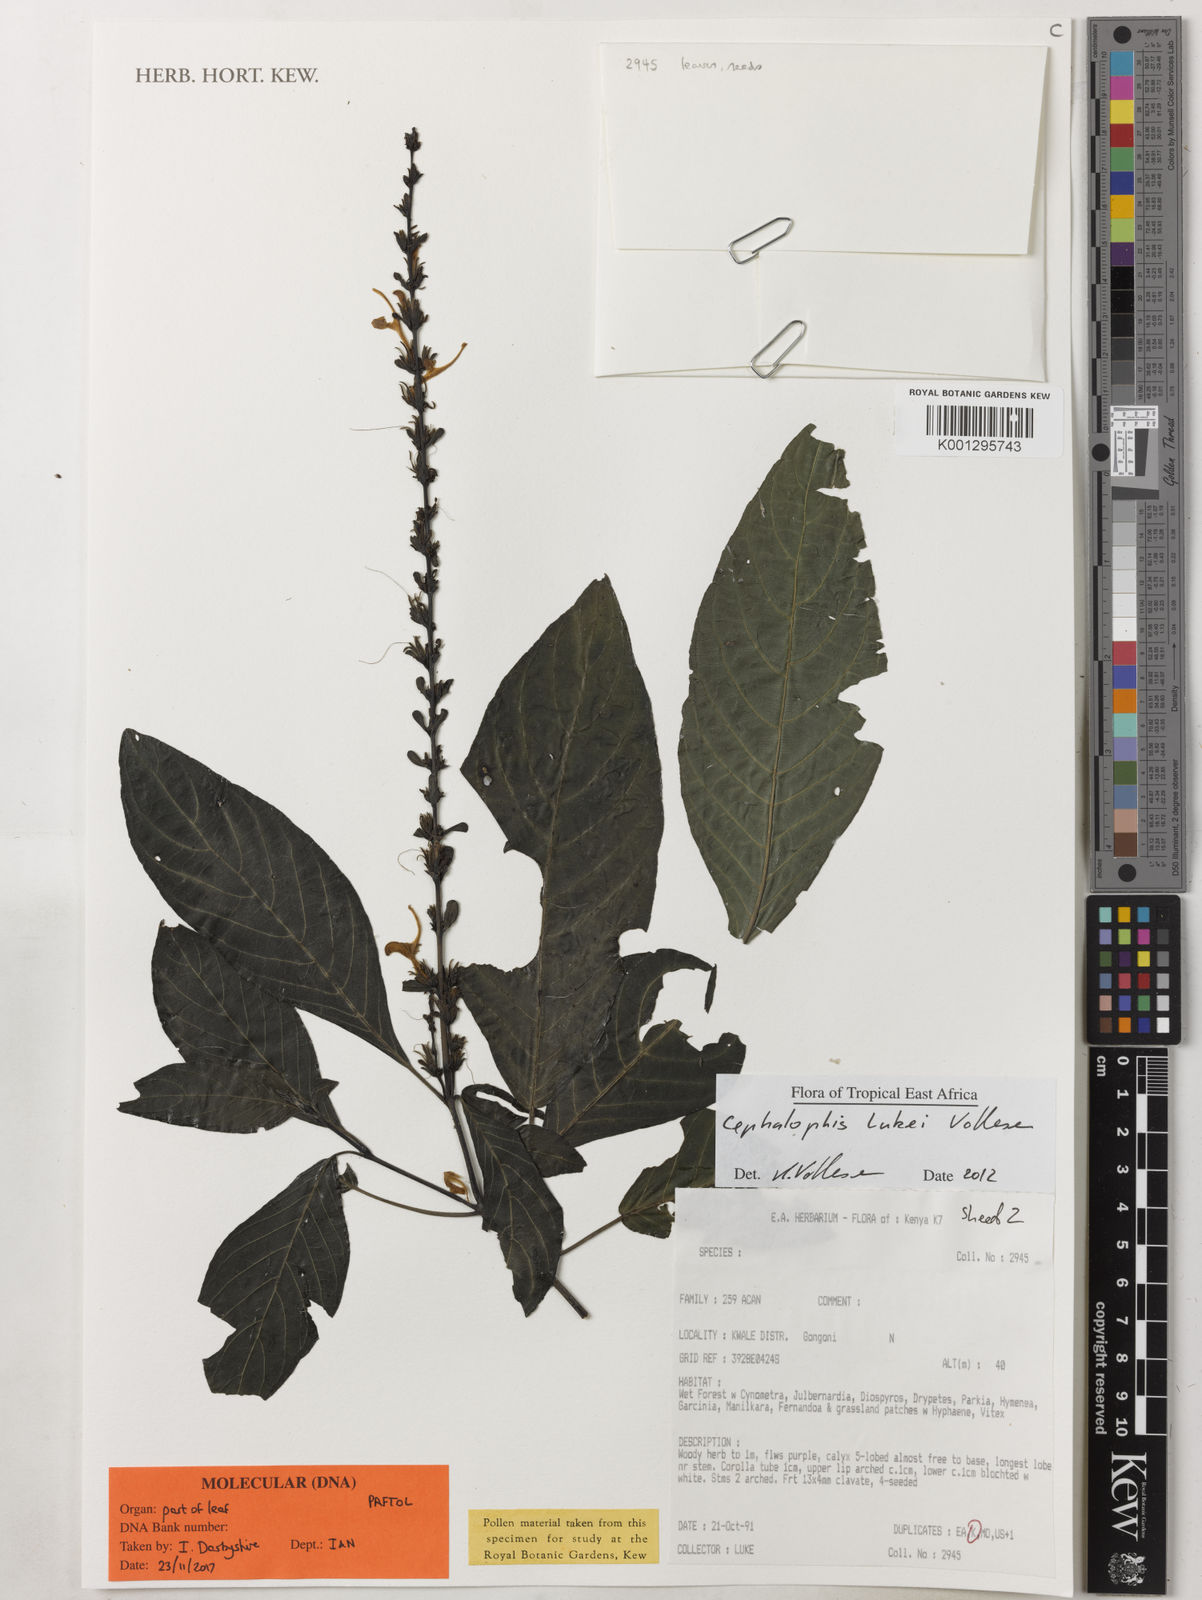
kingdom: Plantae
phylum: Tracheophyta
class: Magnoliopsida
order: Lamiales
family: Acanthaceae
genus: Cephalophis
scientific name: Cephalophis lukei
